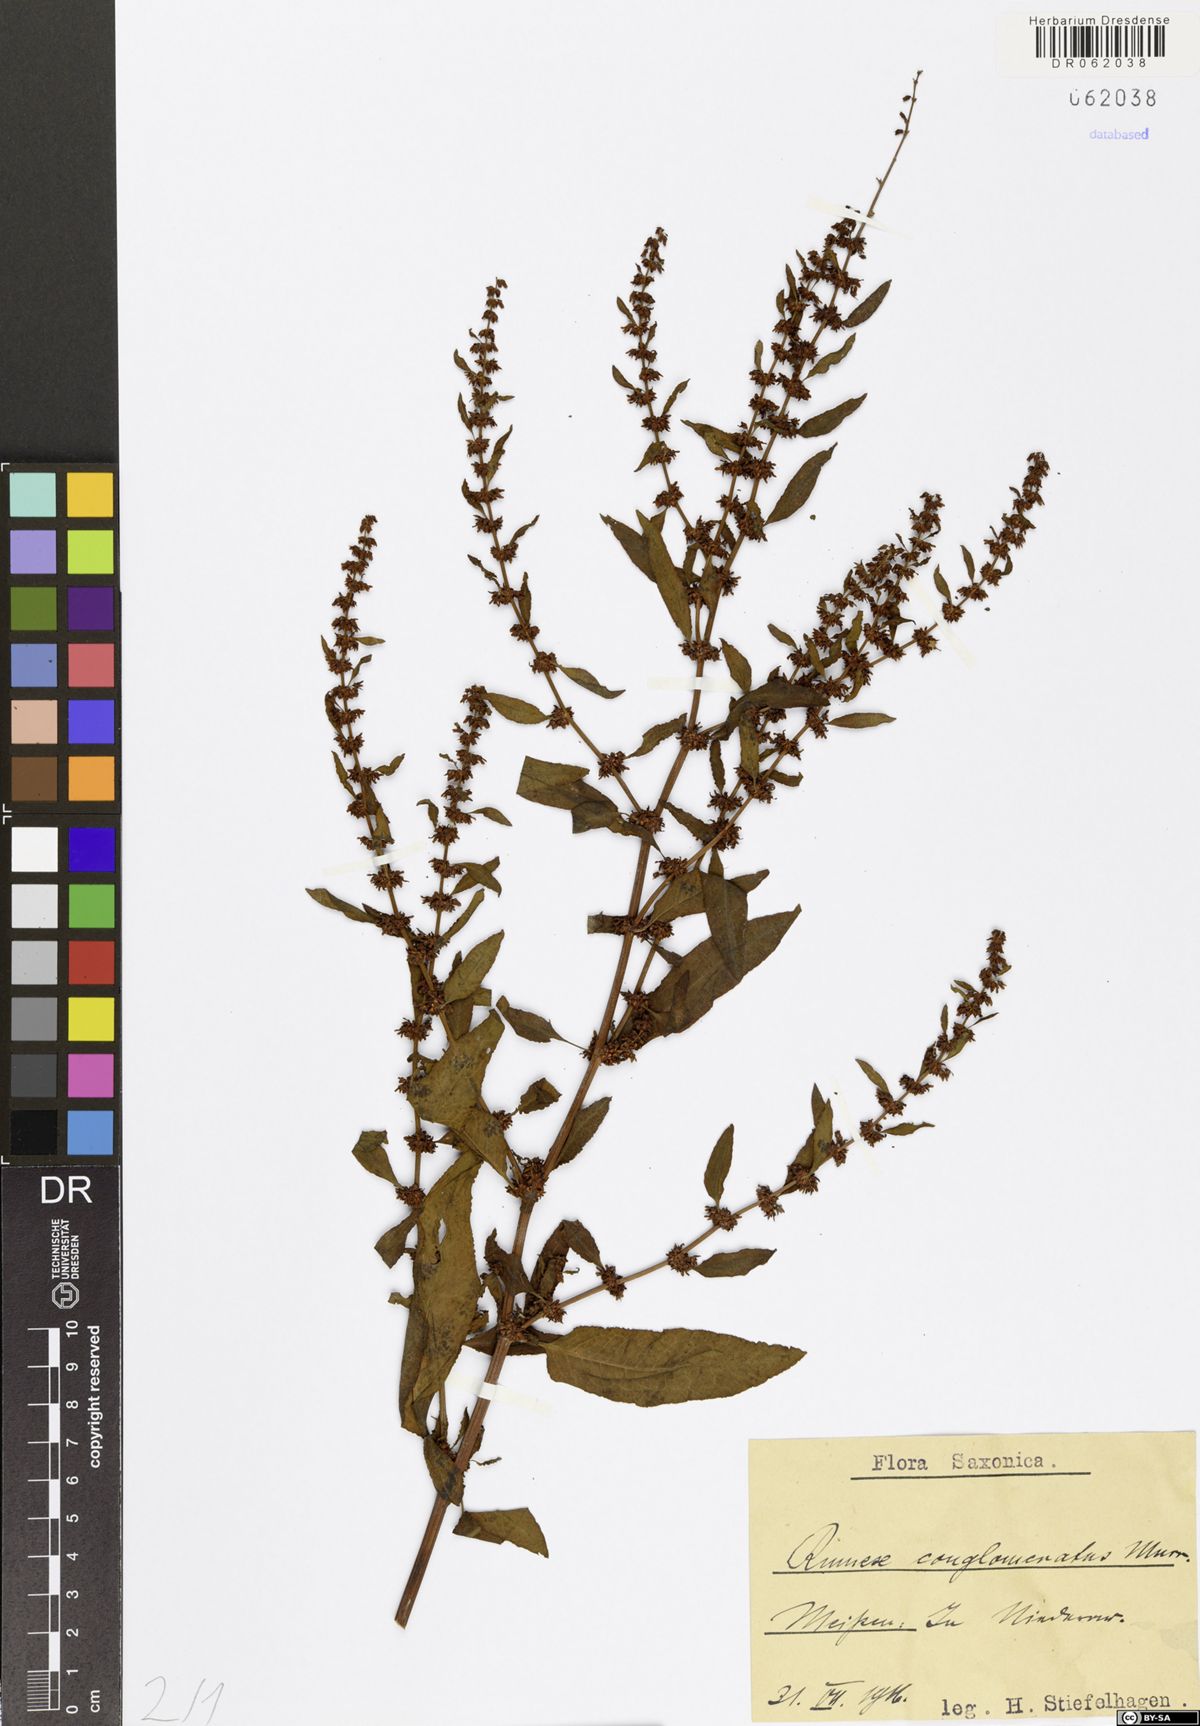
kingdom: Plantae
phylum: Tracheophyta
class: Magnoliopsida
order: Caryophyllales
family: Polygonaceae
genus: Rumex
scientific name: Rumex conglomeratus
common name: Clustered dock
